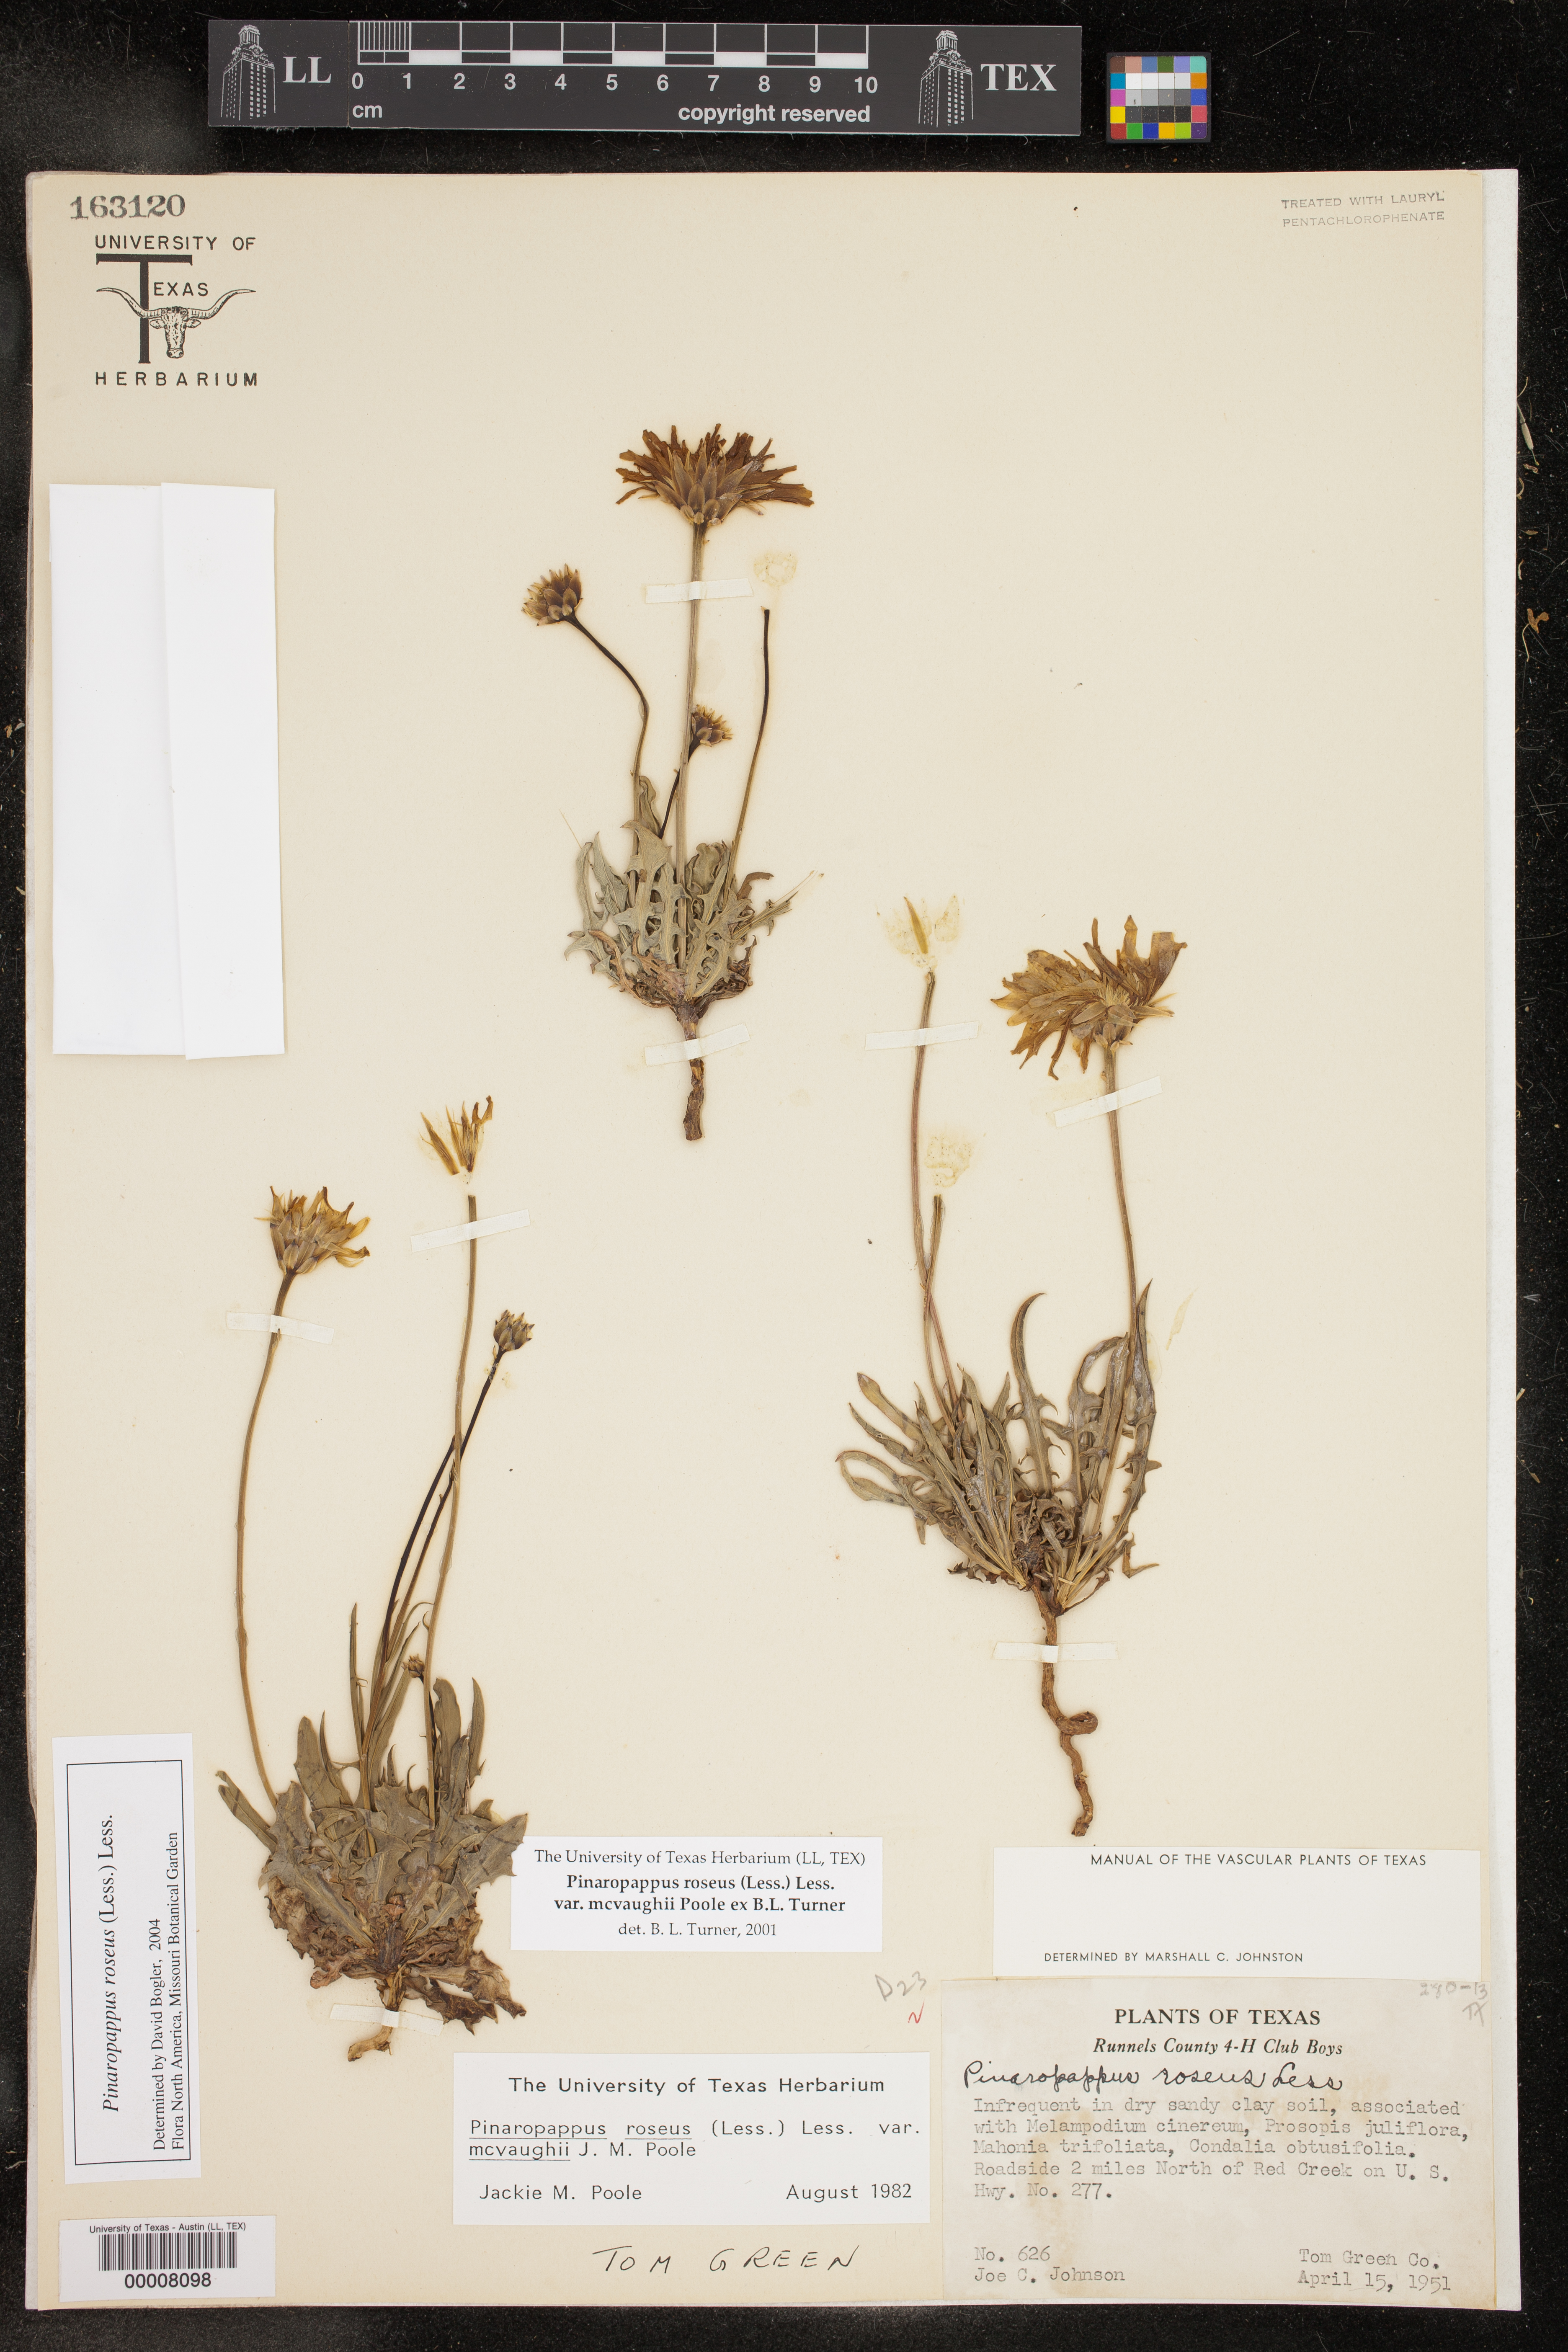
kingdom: Plantae
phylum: Tracheophyta
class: Magnoliopsida
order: Asterales
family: Asteraceae
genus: Pinaropappus
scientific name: Pinaropappus roseus
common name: Rock-lettuce
